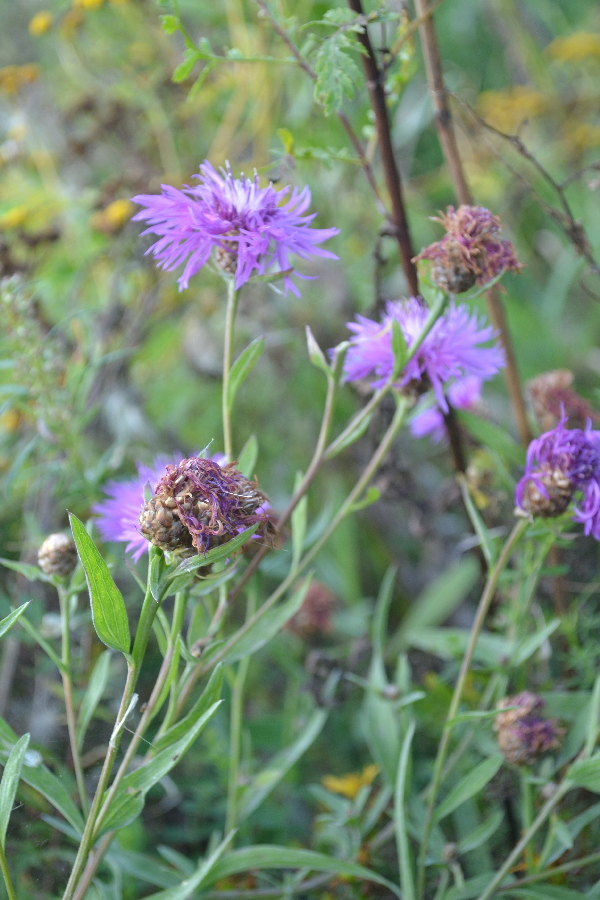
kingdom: Plantae
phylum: Tracheophyta
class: Magnoliopsida
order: Asterales
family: Asteraceae
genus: Centaurea
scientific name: Centaurea jacea
